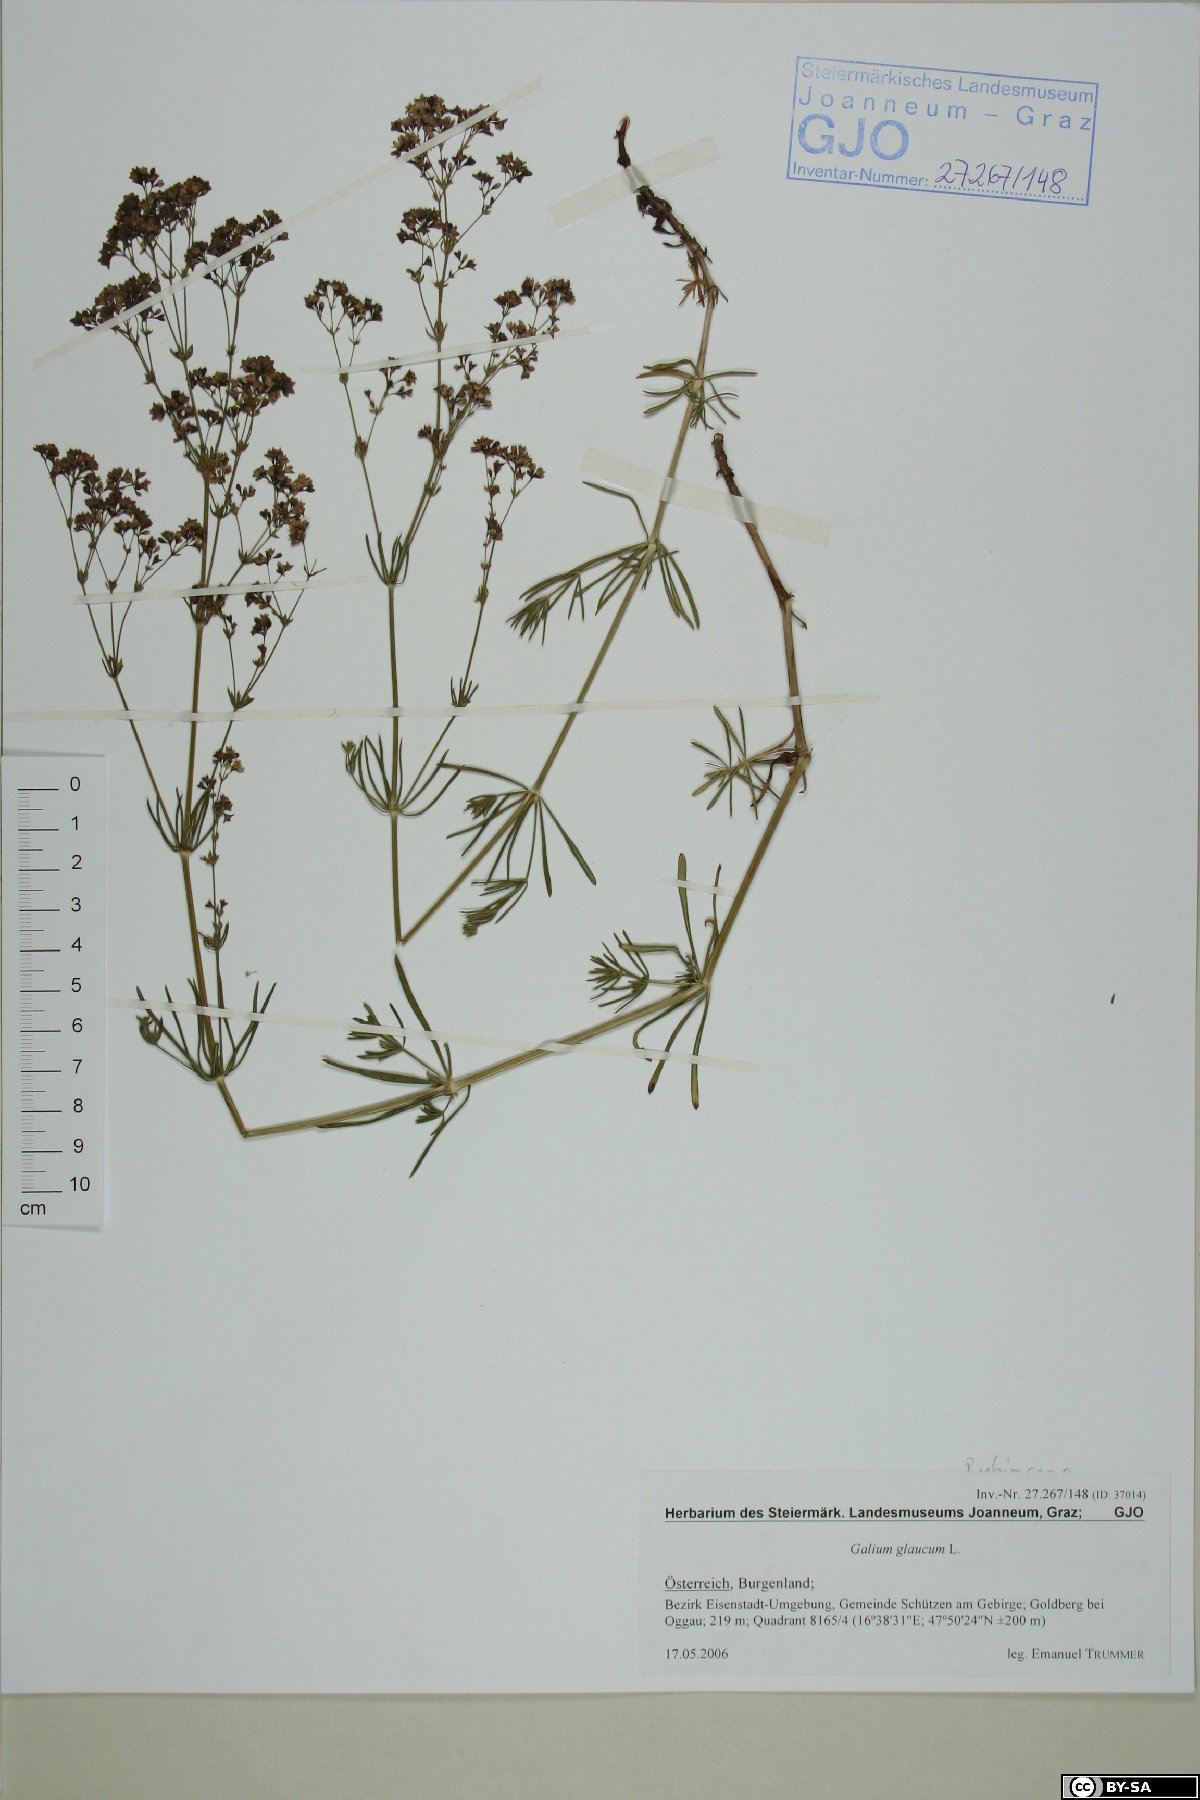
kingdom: Plantae
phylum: Tracheophyta
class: Magnoliopsida
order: Gentianales
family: Rubiaceae
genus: Galium
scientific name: Galium glaucum
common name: Waxy bedstraw
